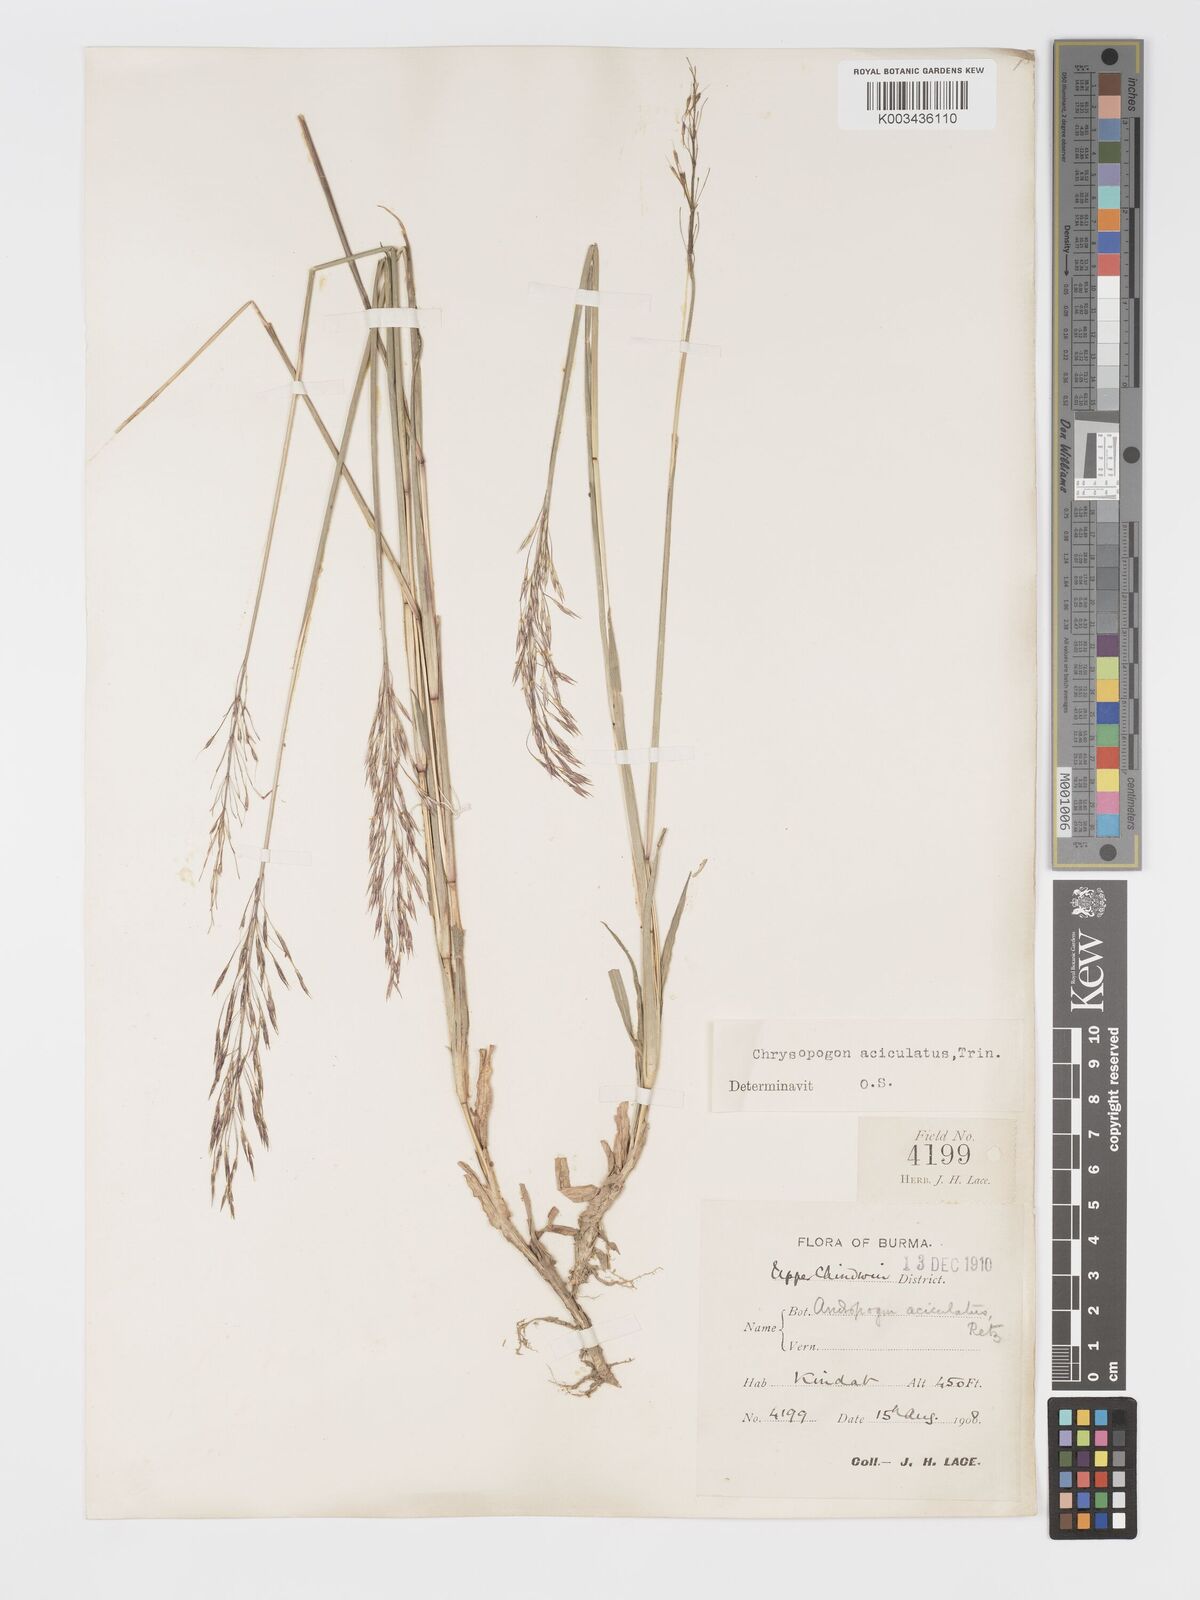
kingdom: Plantae
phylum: Tracheophyta
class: Liliopsida
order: Poales
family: Poaceae
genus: Chrysopogon
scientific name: Chrysopogon aciculatus
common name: Pilipiliula
